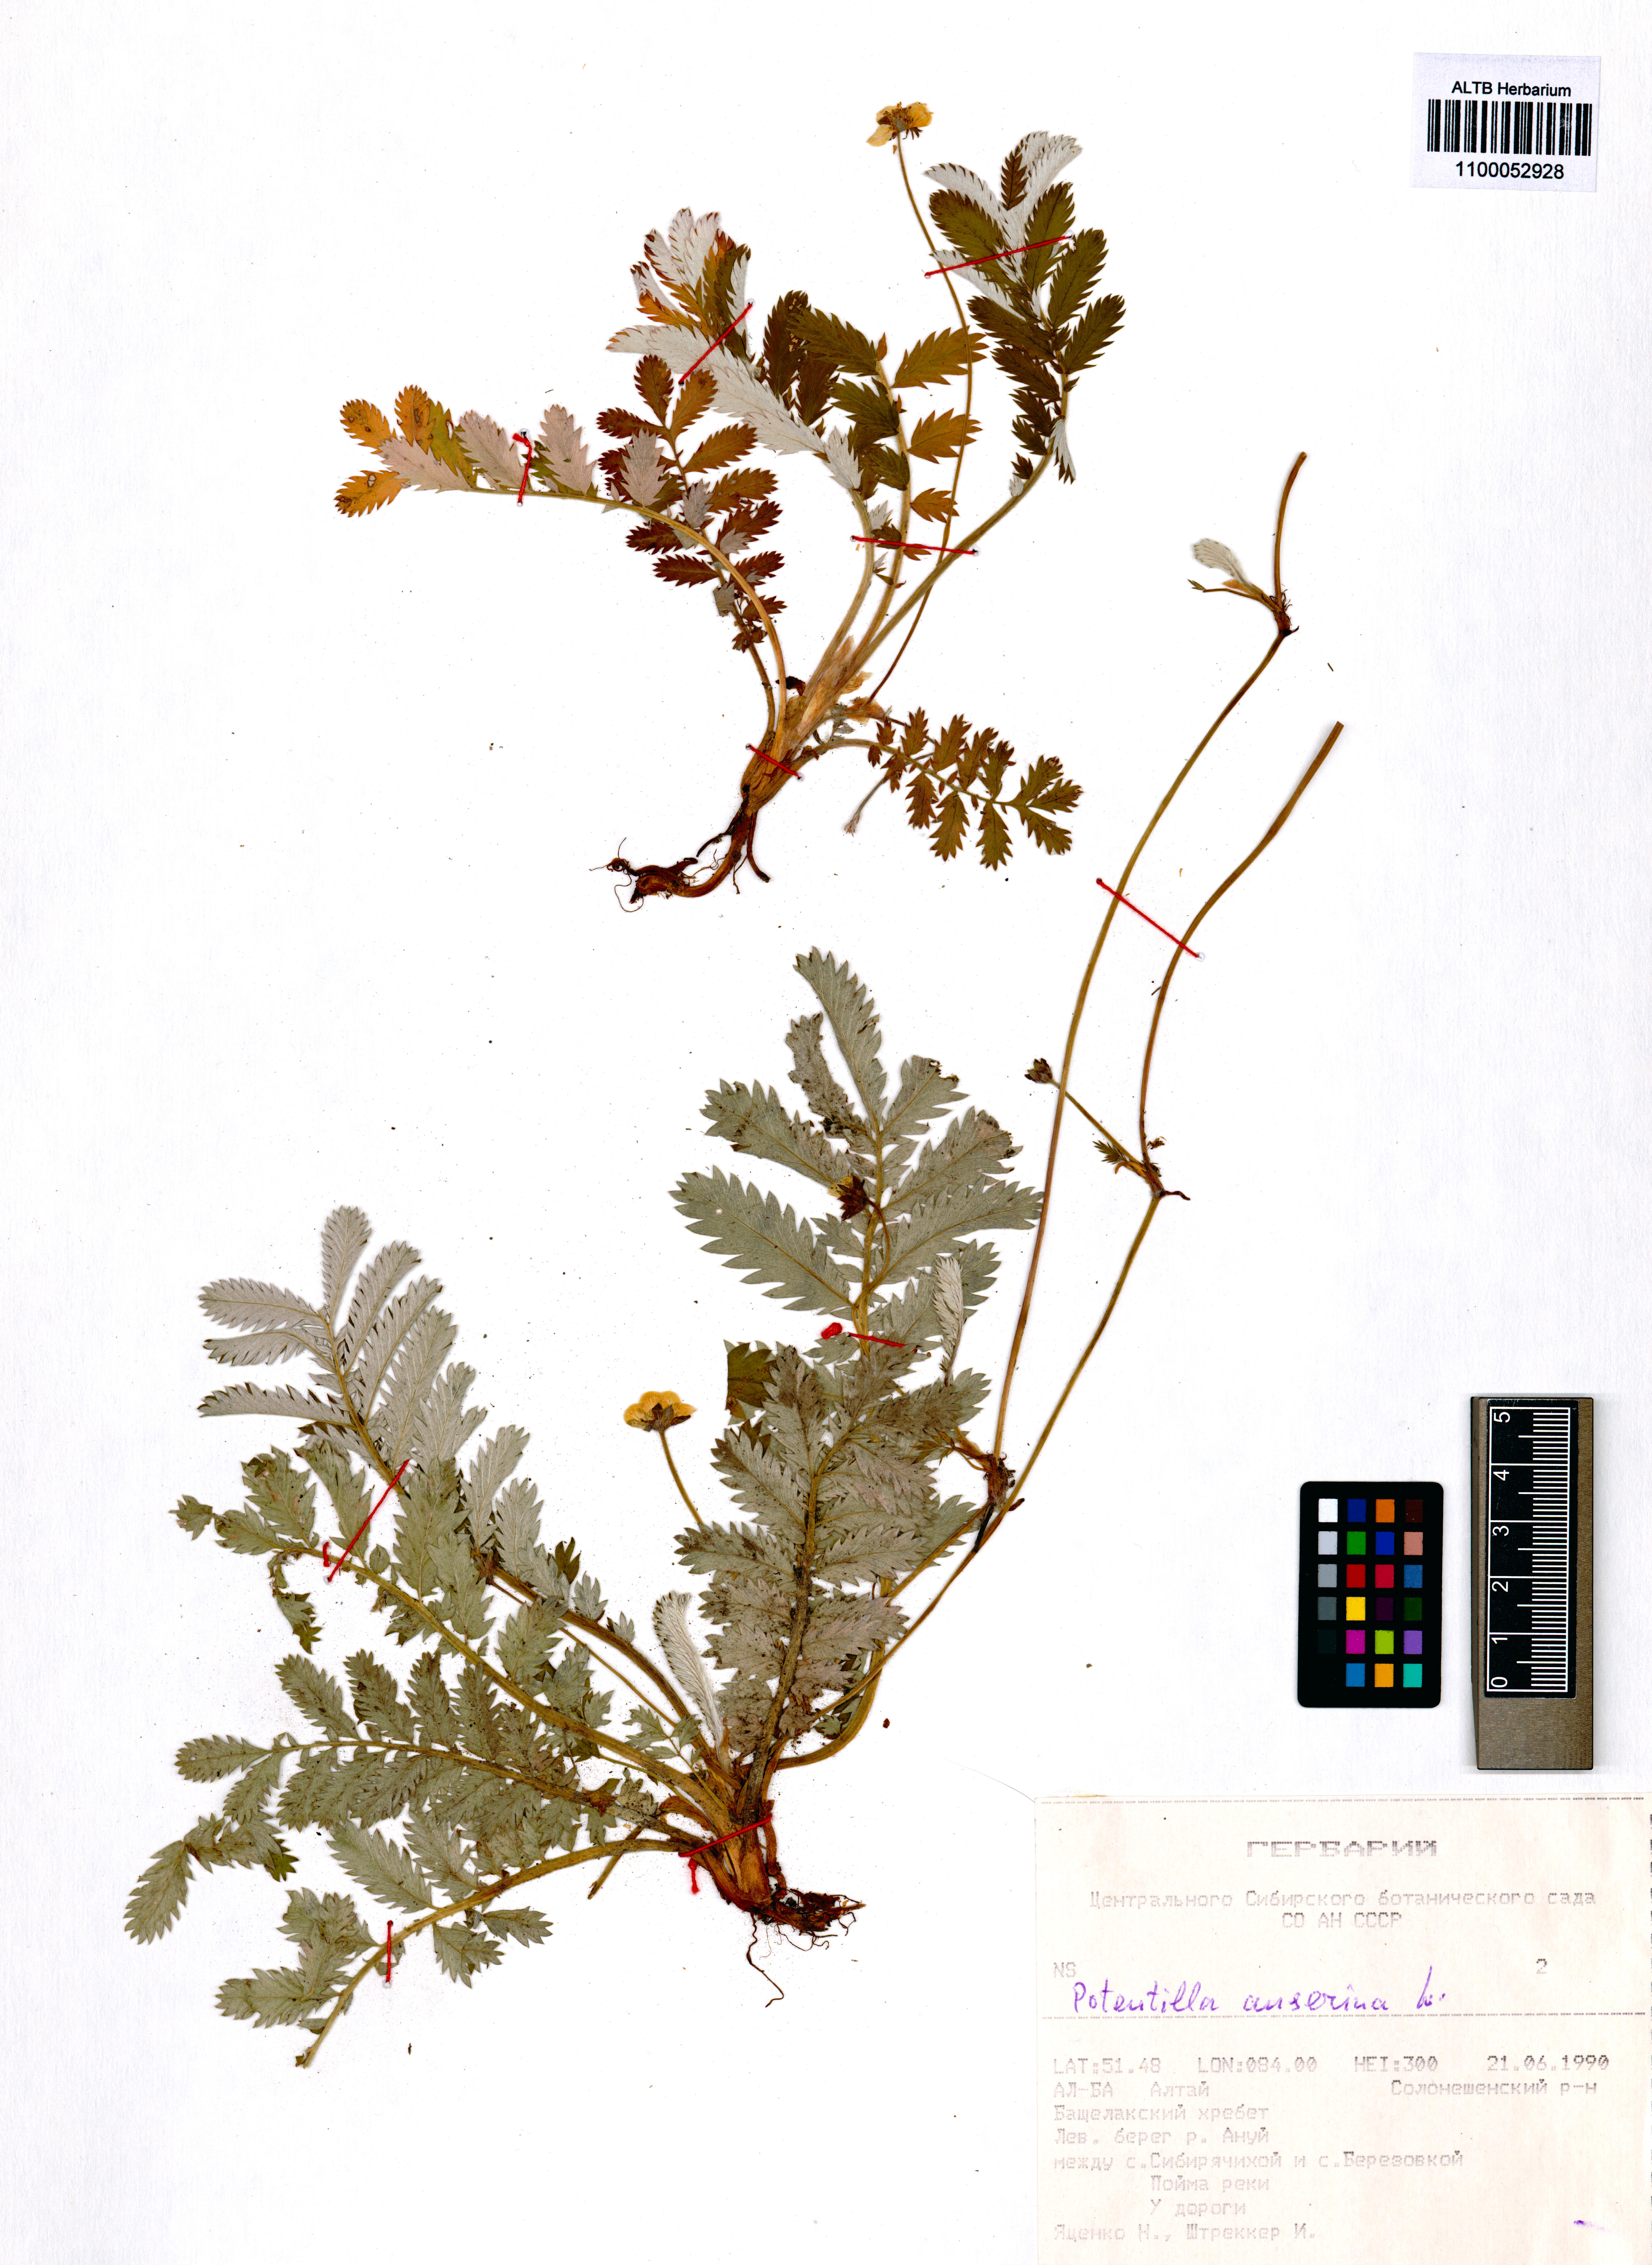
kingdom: Plantae
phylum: Tracheophyta
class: Magnoliopsida
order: Rosales
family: Rosaceae
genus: Argentina
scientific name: Argentina anserina
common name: Common silverweed
